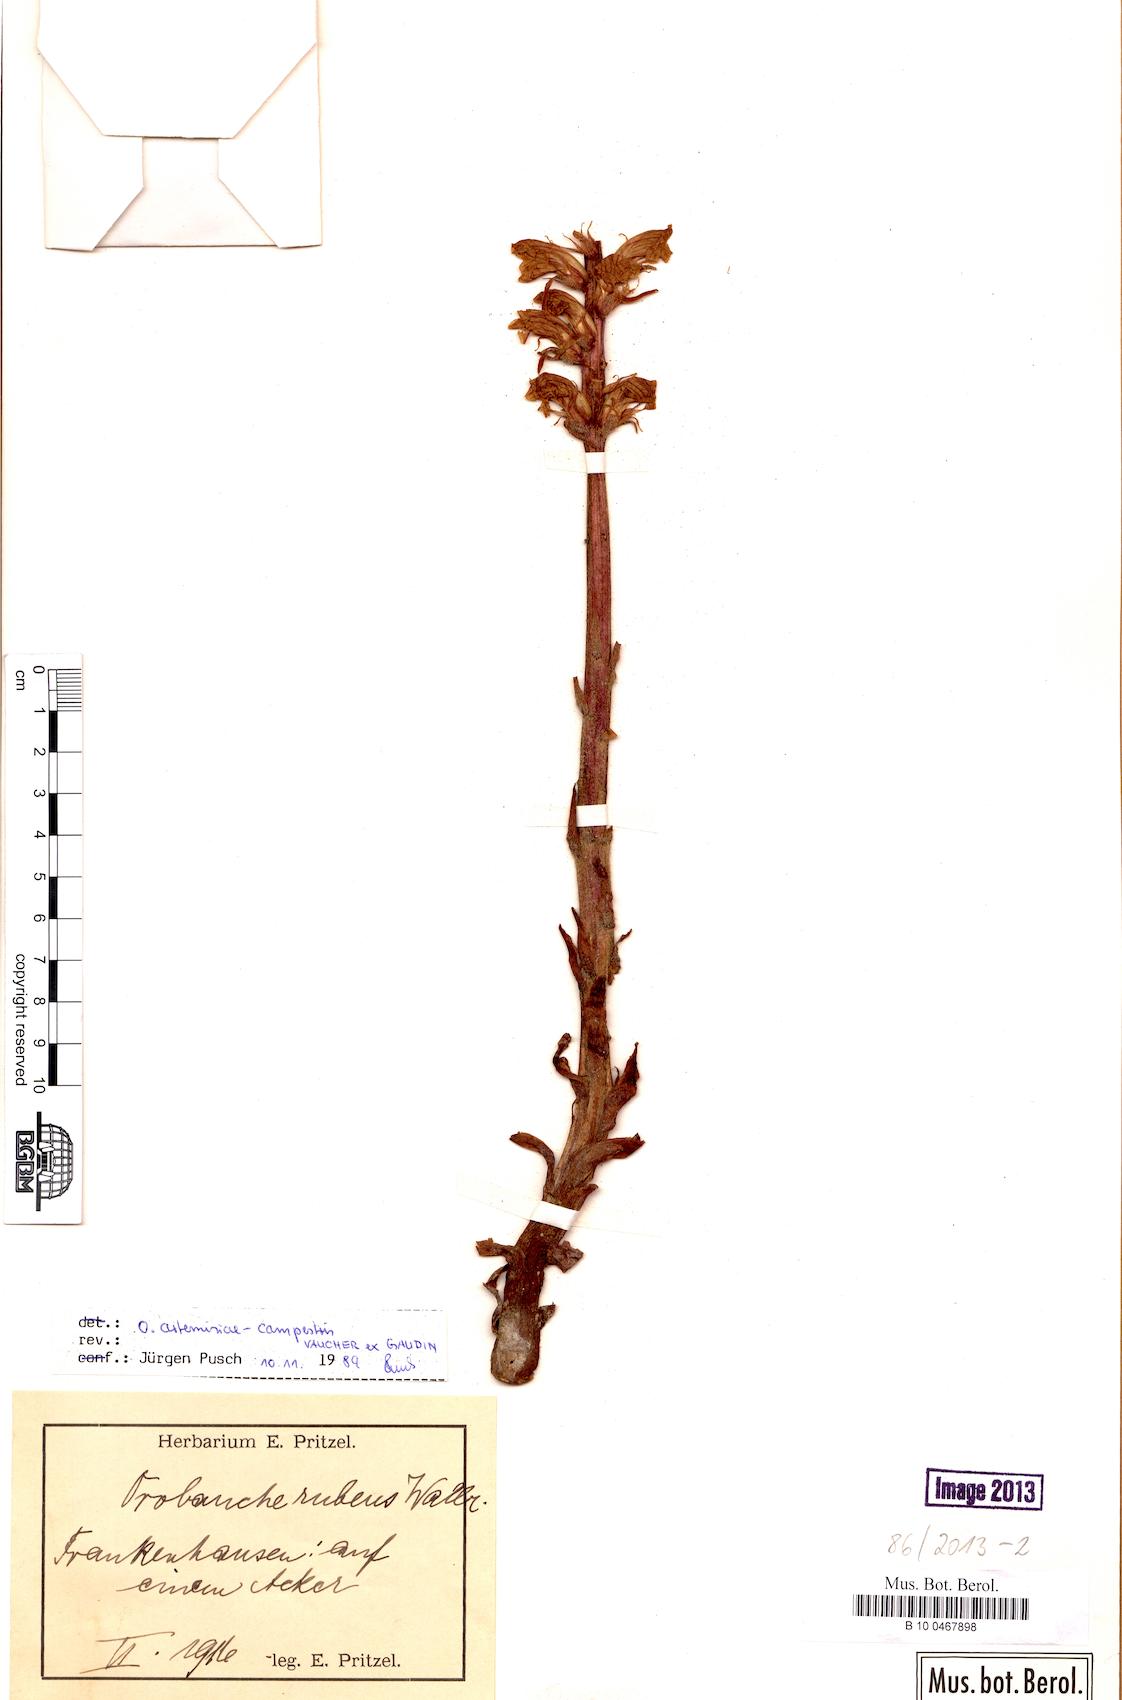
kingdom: Plantae
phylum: Tracheophyta
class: Magnoliopsida
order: Lamiales
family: Orobanchaceae
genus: Orobanche
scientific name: Orobanche artemisiae-campestris
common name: Oxtongue broomrape
